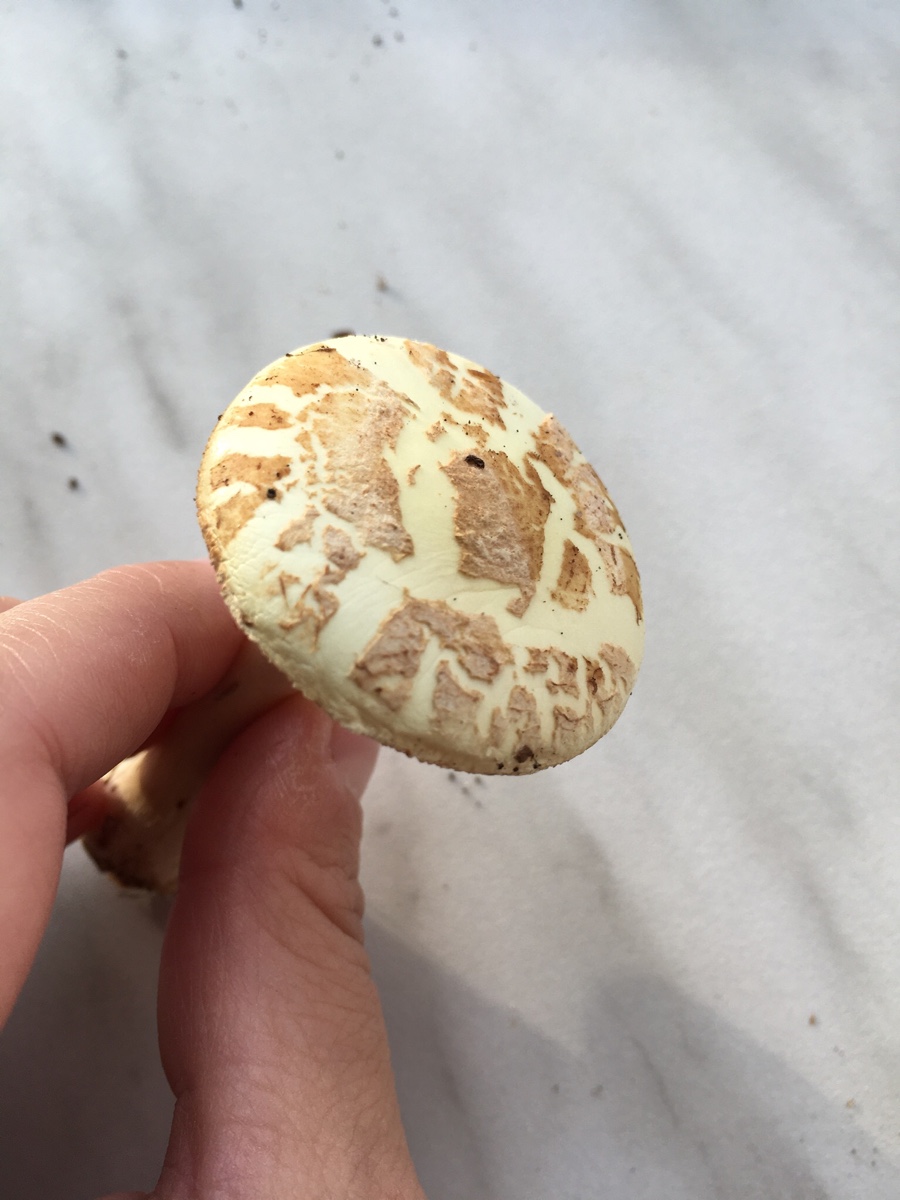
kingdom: Fungi
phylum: Basidiomycota
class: Agaricomycetes
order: Agaricales
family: Amanitaceae
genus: Amanita
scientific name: Amanita citrina
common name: kugleknoldet fluesvamp
